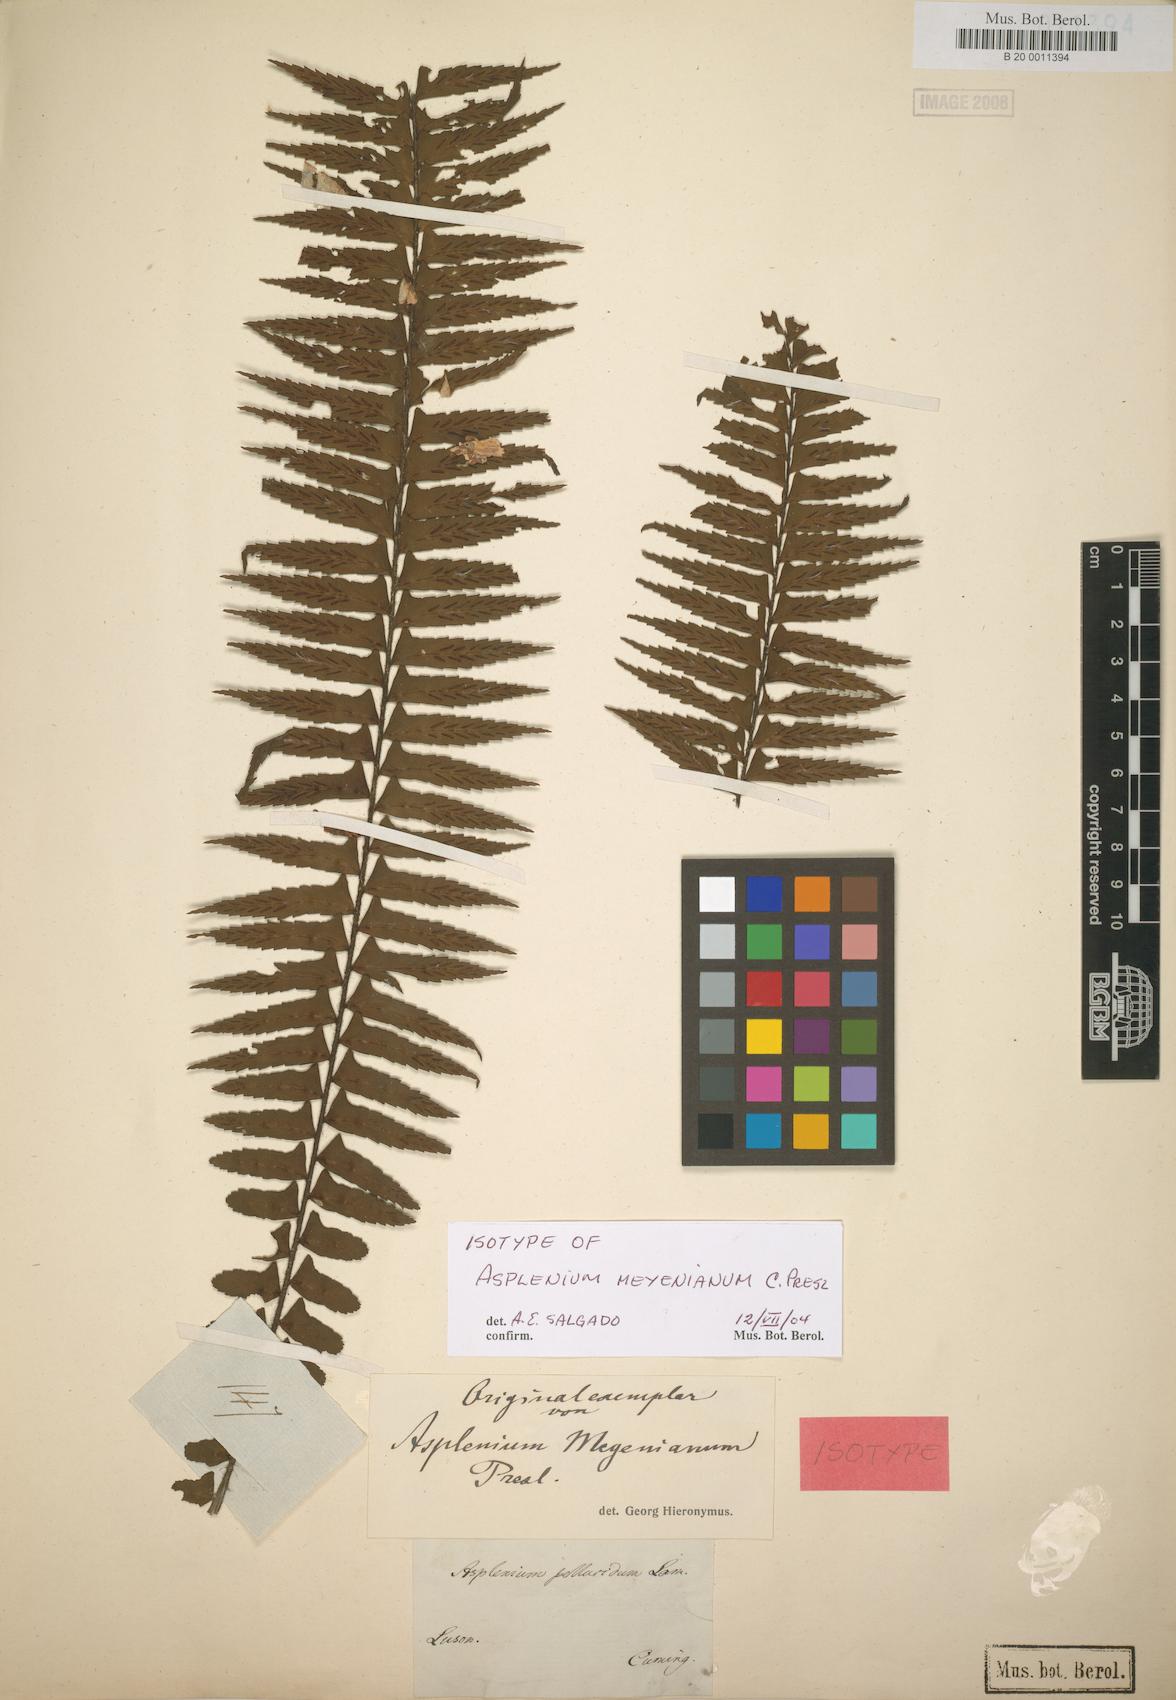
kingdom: Plantae
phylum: Tracheophyta
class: Polypodiopsida
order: Polypodiales
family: Aspleniaceae
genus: Asplenium
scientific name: Asplenium pellucidum
